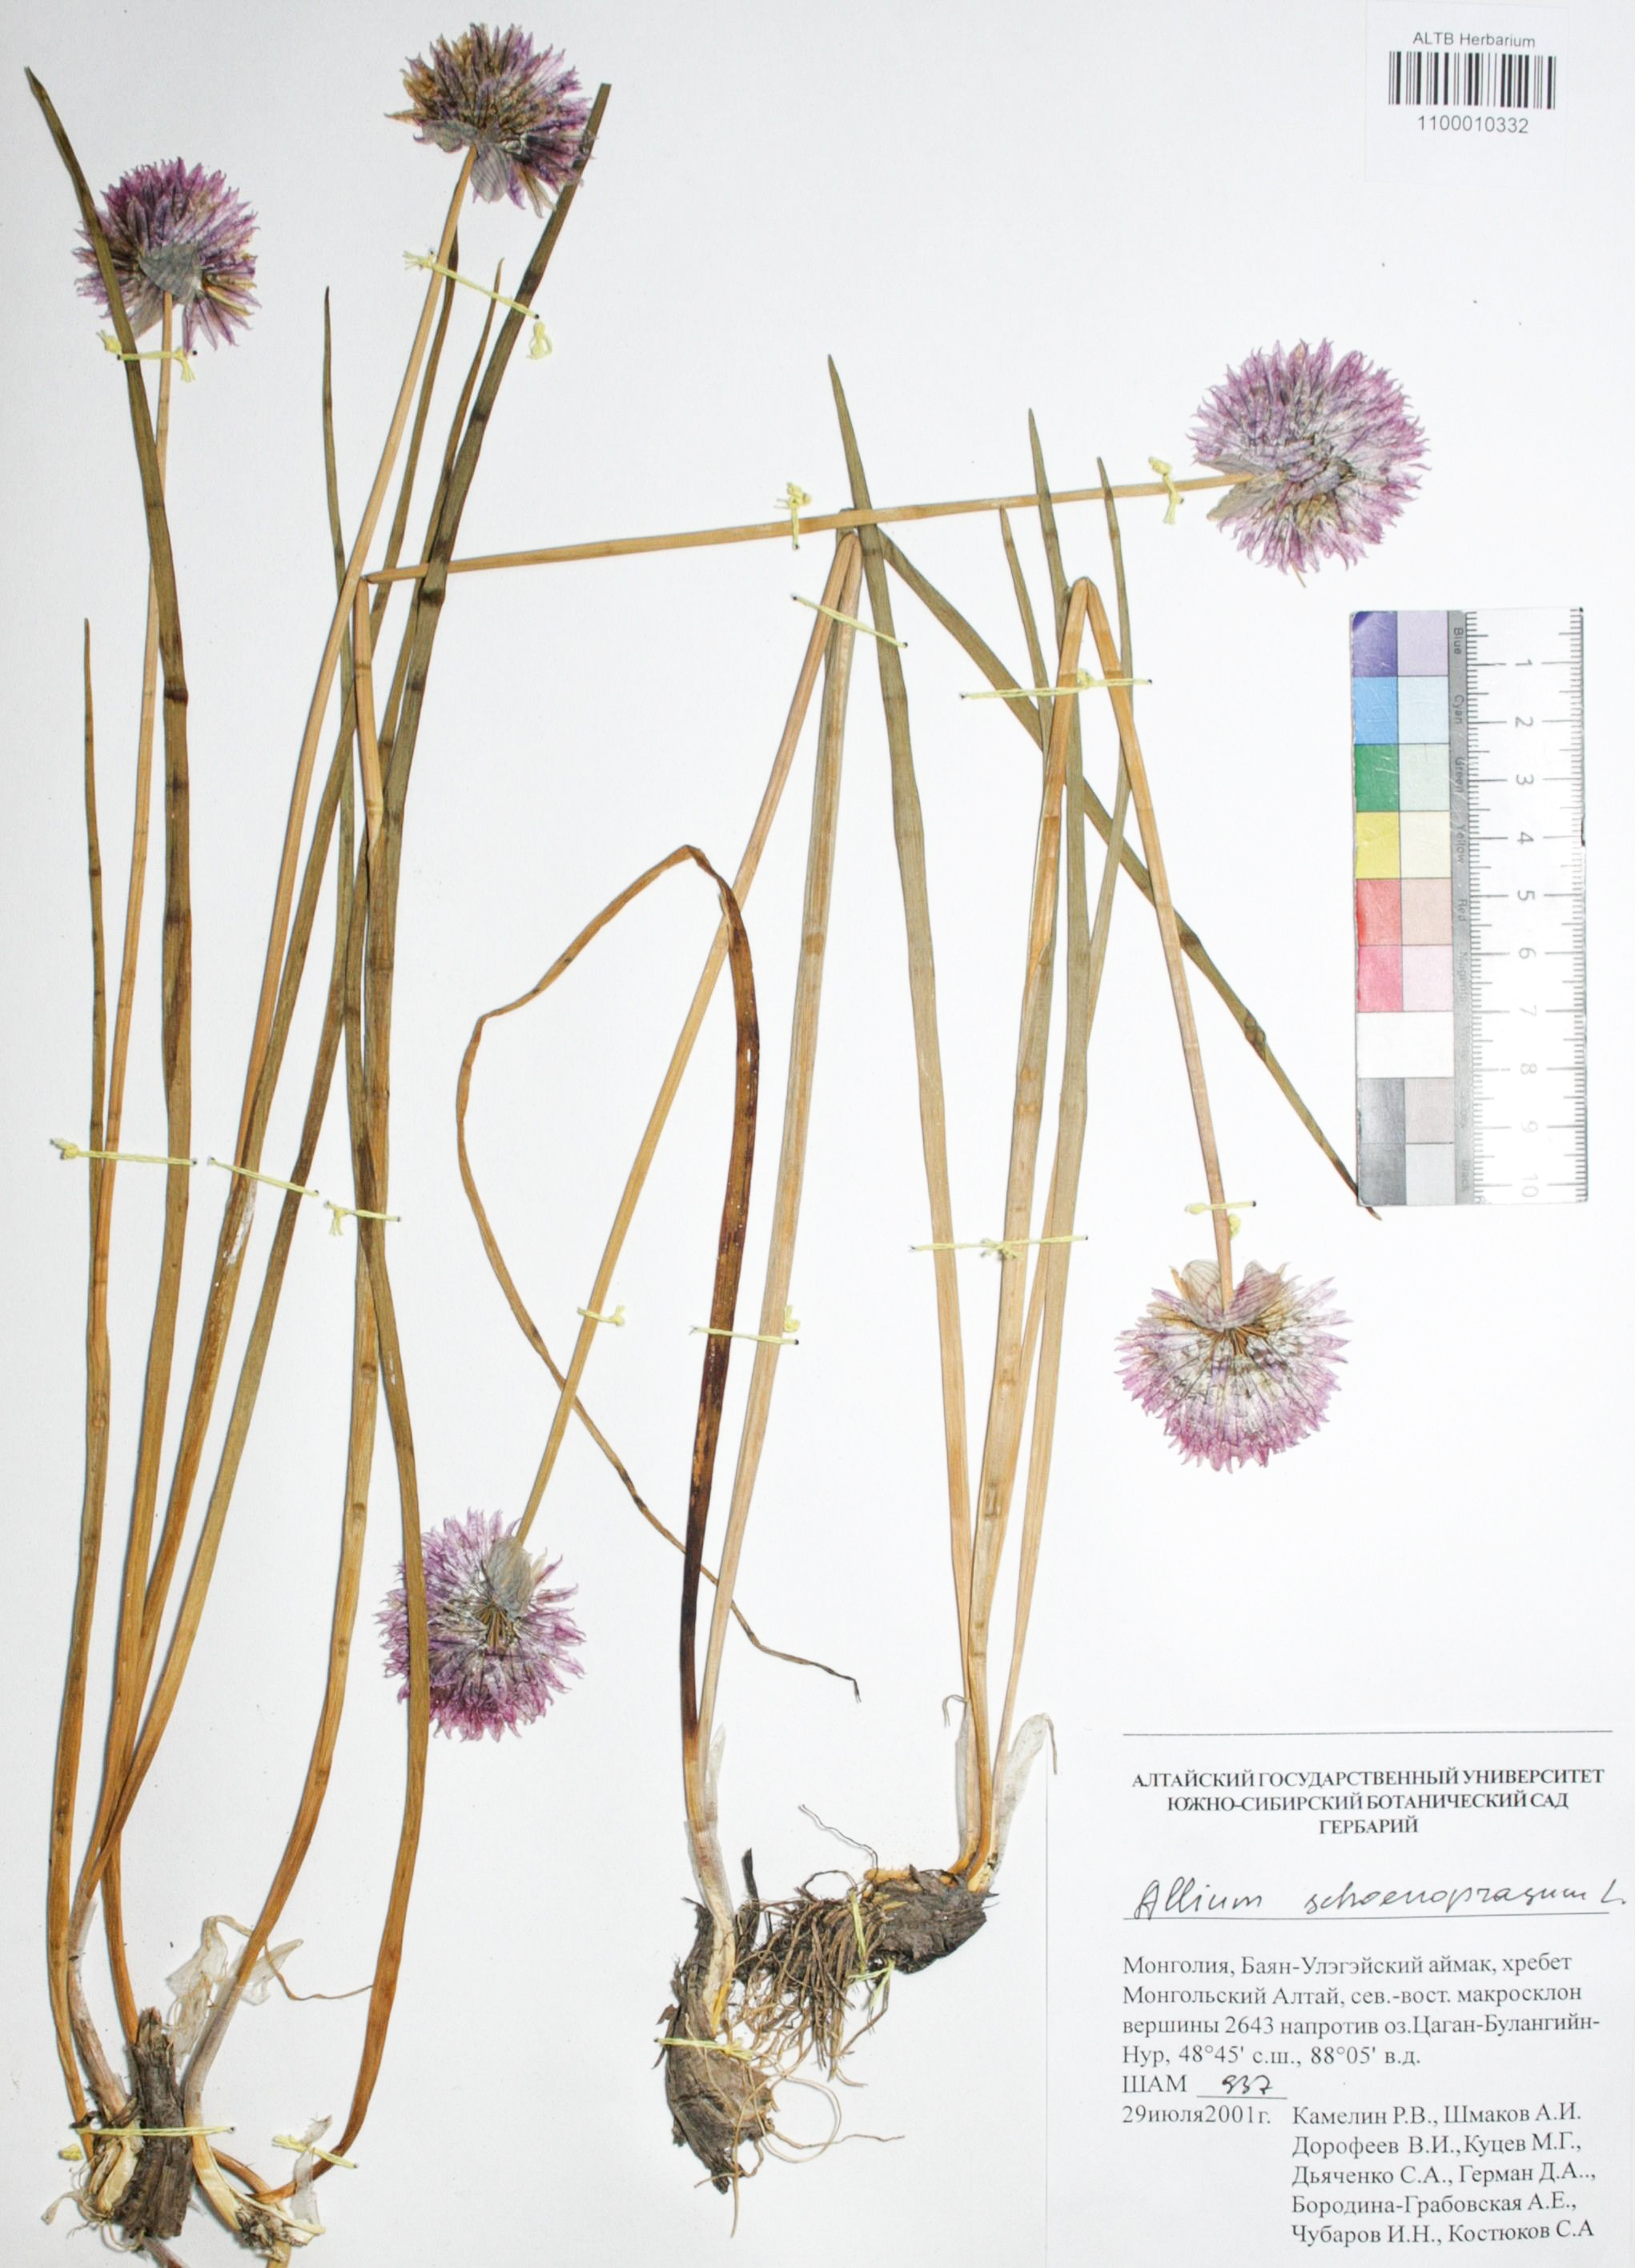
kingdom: Plantae
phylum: Tracheophyta
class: Liliopsida
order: Asparagales
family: Amaryllidaceae
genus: Allium
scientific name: Allium schoenoprasum
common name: Chives
